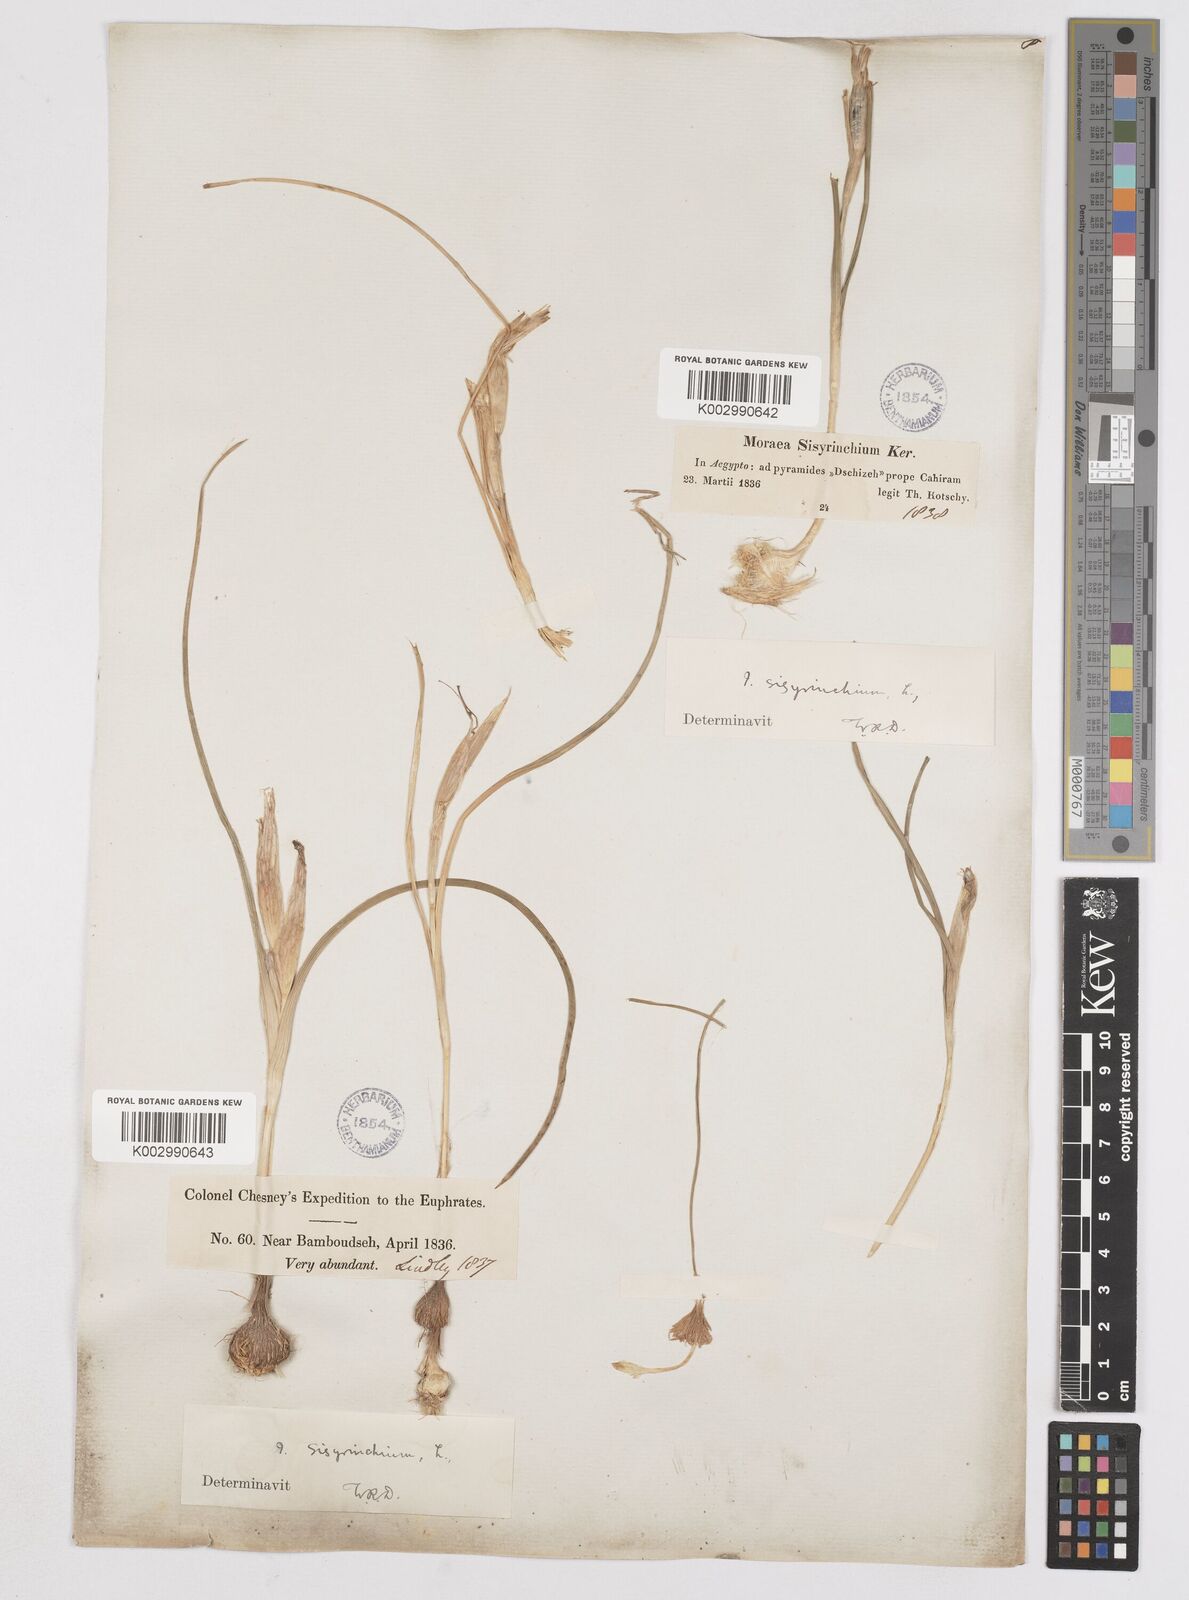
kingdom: Plantae
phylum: Tracheophyta
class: Liliopsida
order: Asparagales
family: Iridaceae
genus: Moraea
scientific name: Moraea sisyrinchium
